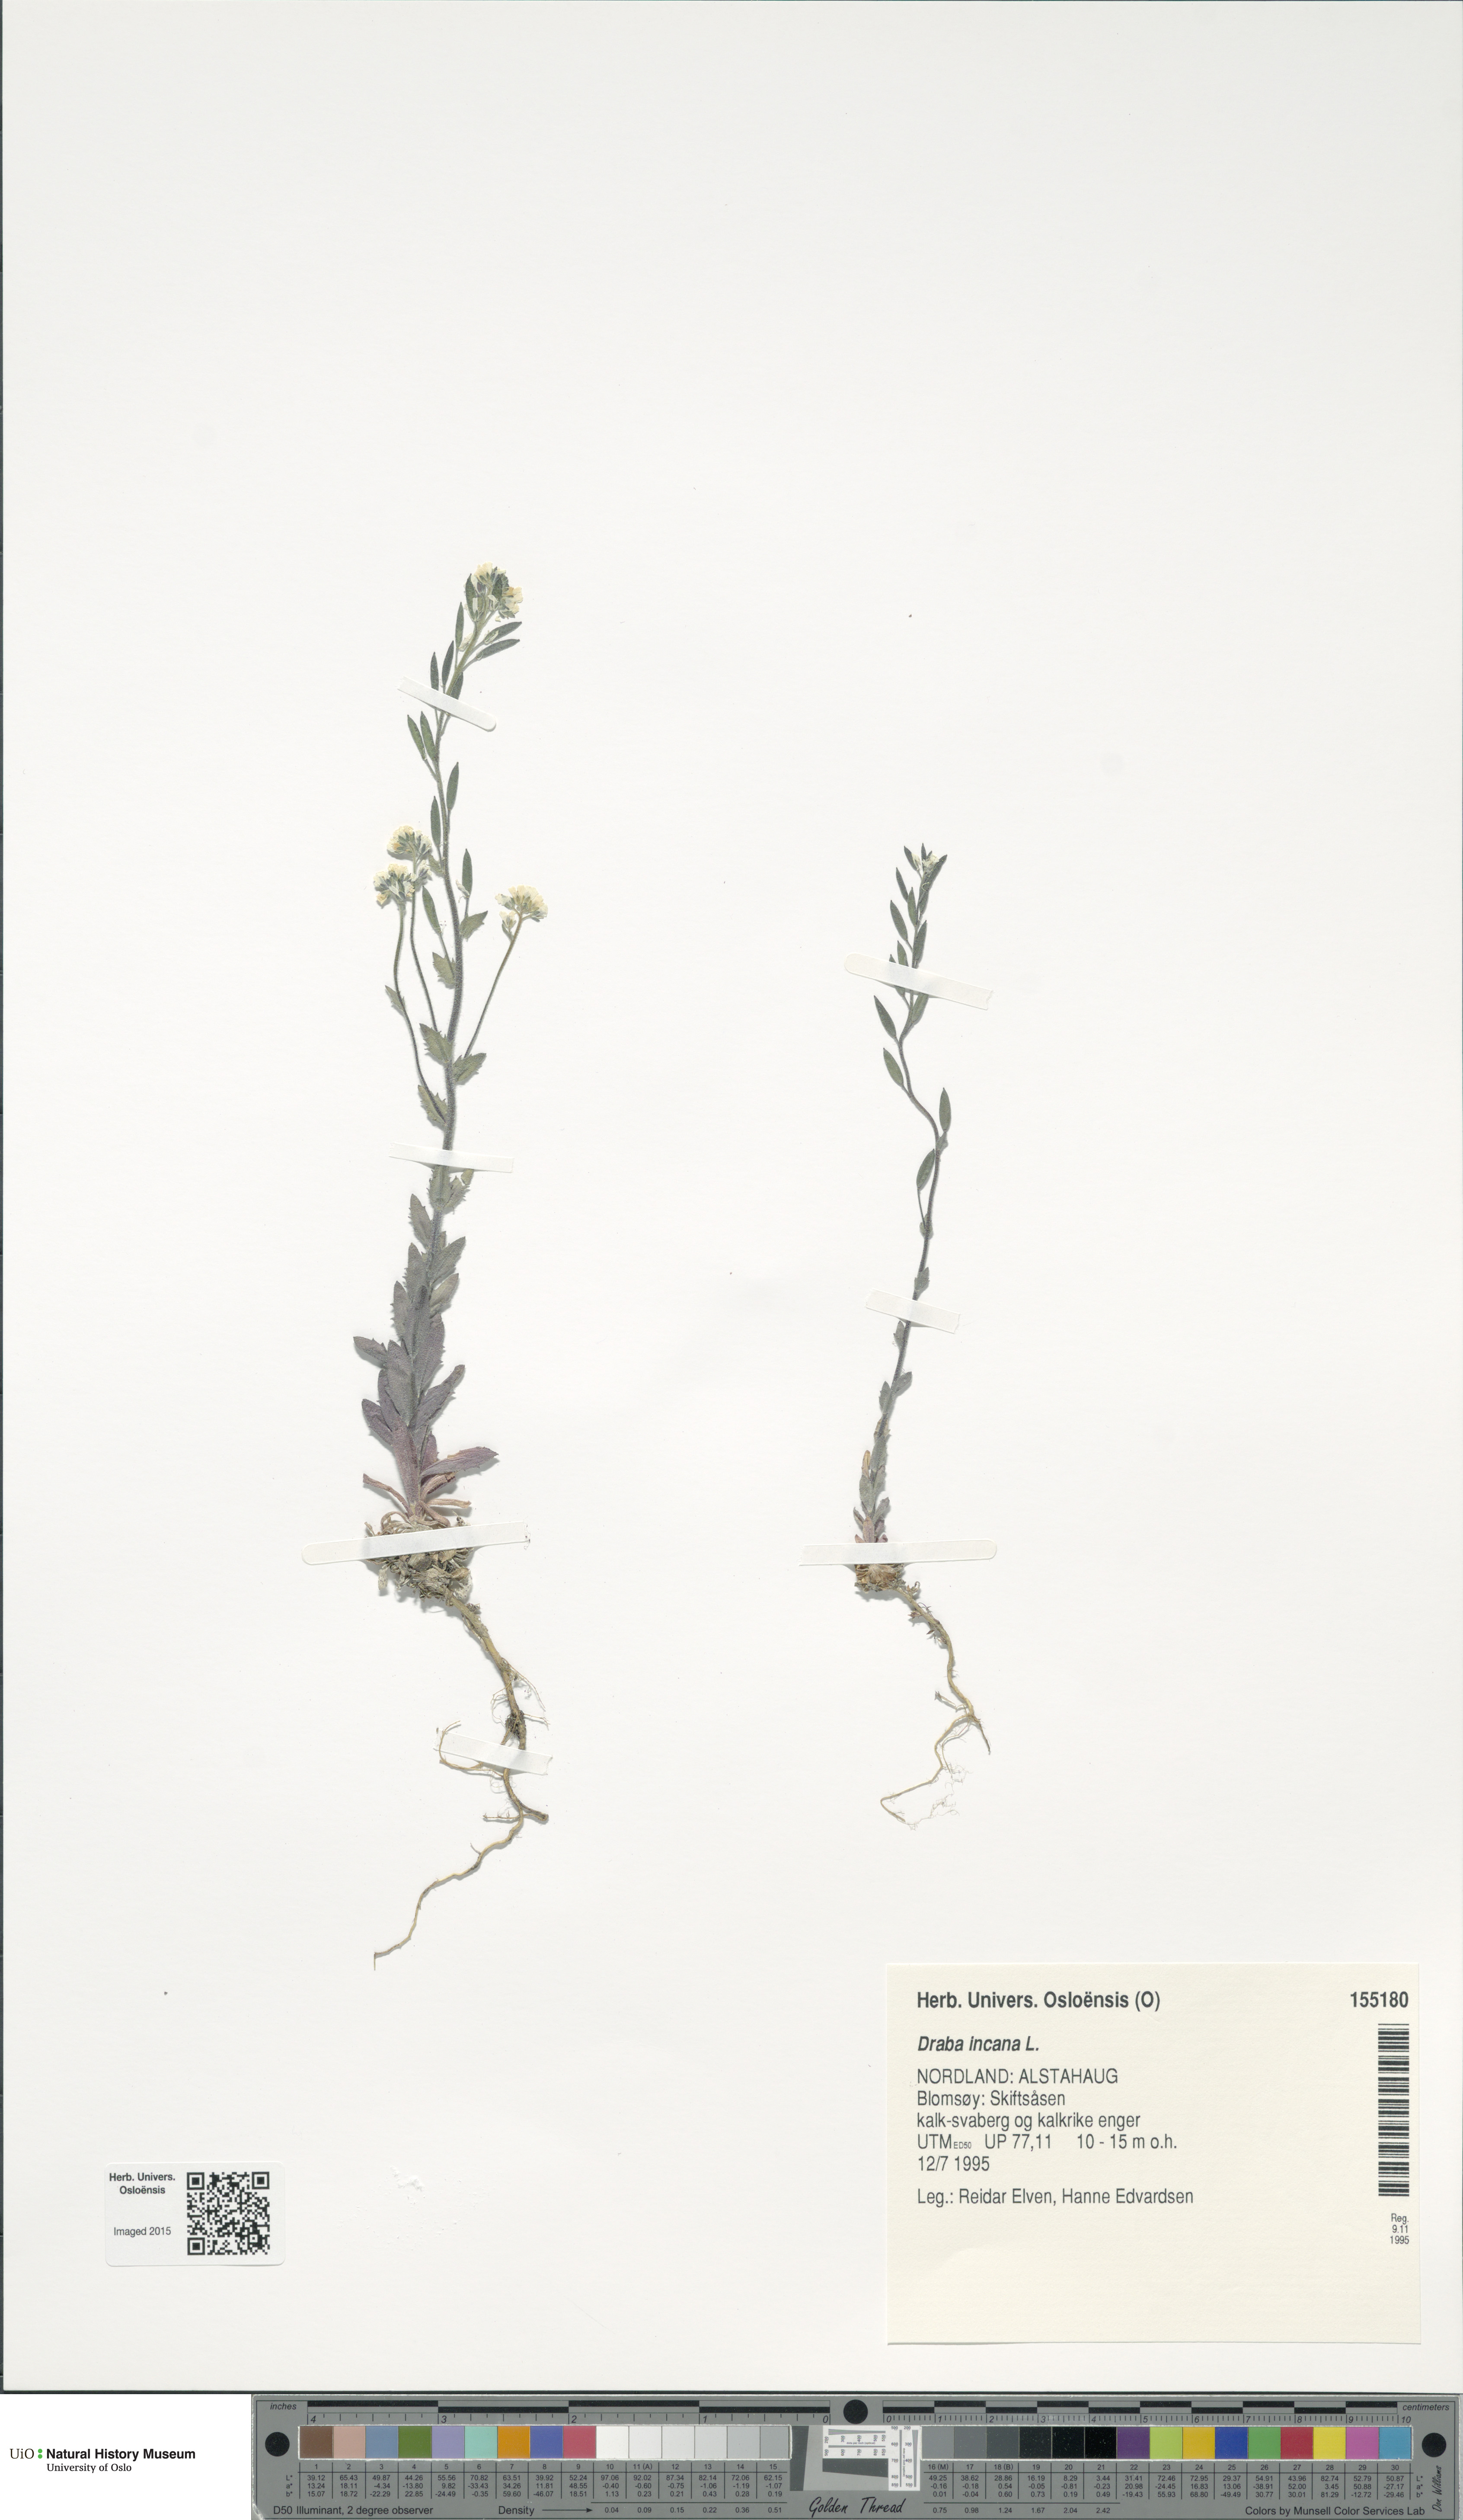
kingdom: Plantae
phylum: Tracheophyta
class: Magnoliopsida
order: Brassicales
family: Brassicaceae
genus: Draba
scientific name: Draba incana
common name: Hoary whitlow-grass
